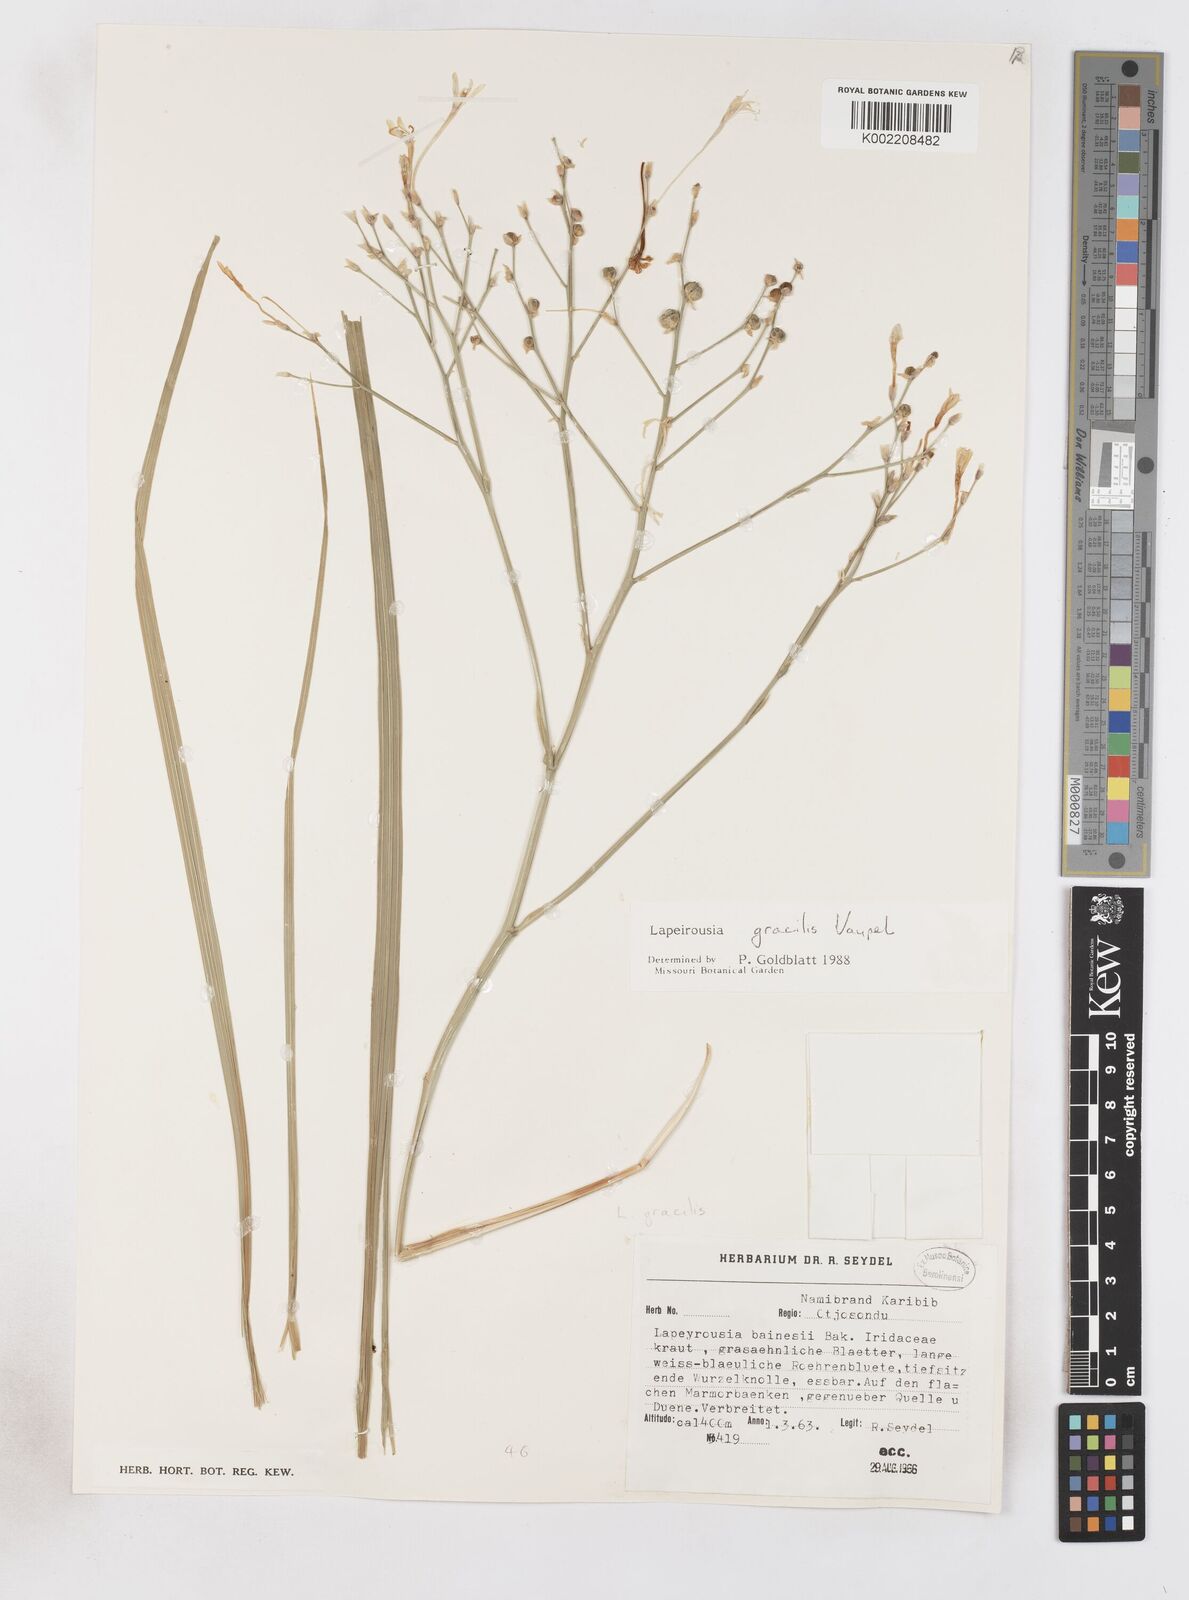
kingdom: Plantae
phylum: Tracheophyta
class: Liliopsida
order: Asparagales
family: Iridaceae
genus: Afrosolen
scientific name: Afrosolen gracilis
